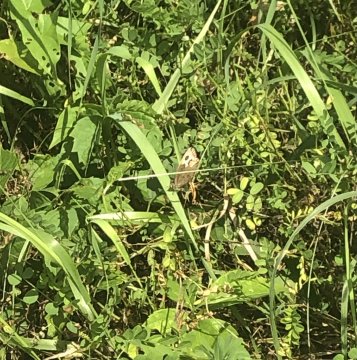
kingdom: Animalia
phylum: Arthropoda
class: Insecta
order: Lepidoptera
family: Nymphalidae
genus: Cercyonis
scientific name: Cercyonis pegala
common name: Common Wood-Nymph
